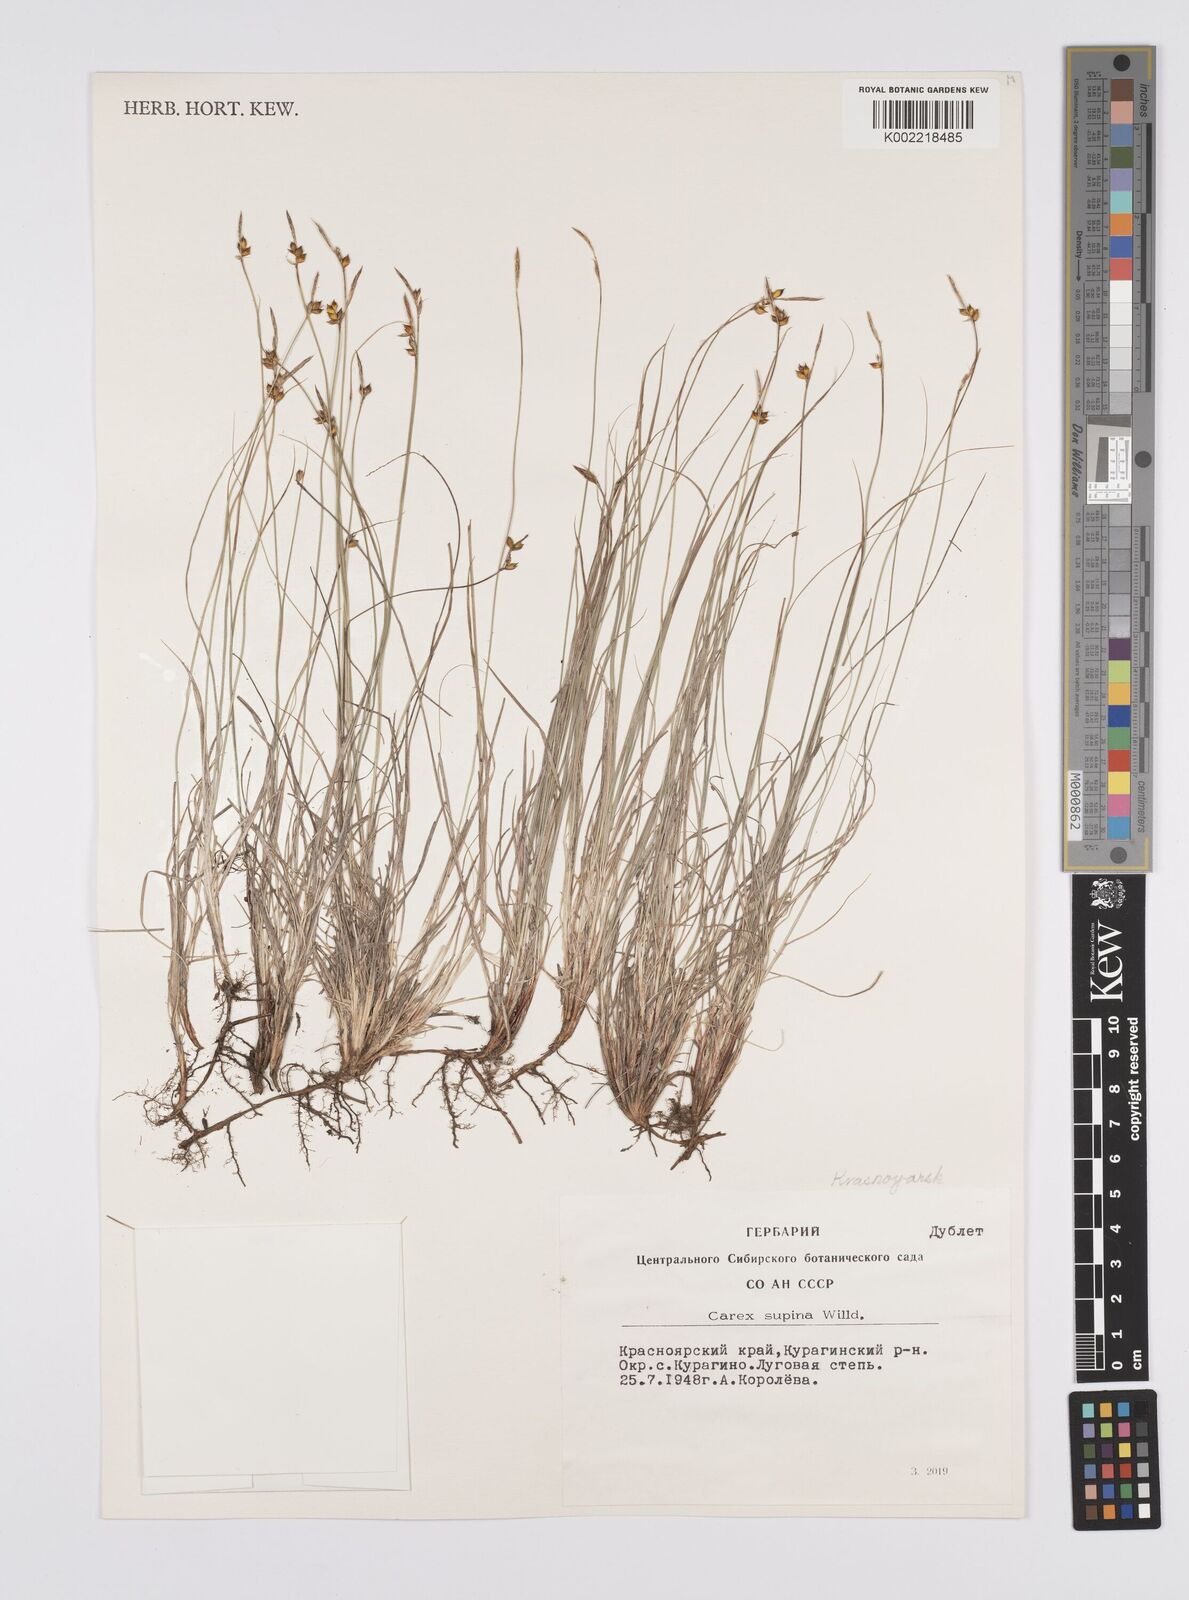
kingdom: Plantae
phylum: Tracheophyta
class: Liliopsida
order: Poales
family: Cyperaceae
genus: Carex
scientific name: Carex supina
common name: Lying-back sedge
